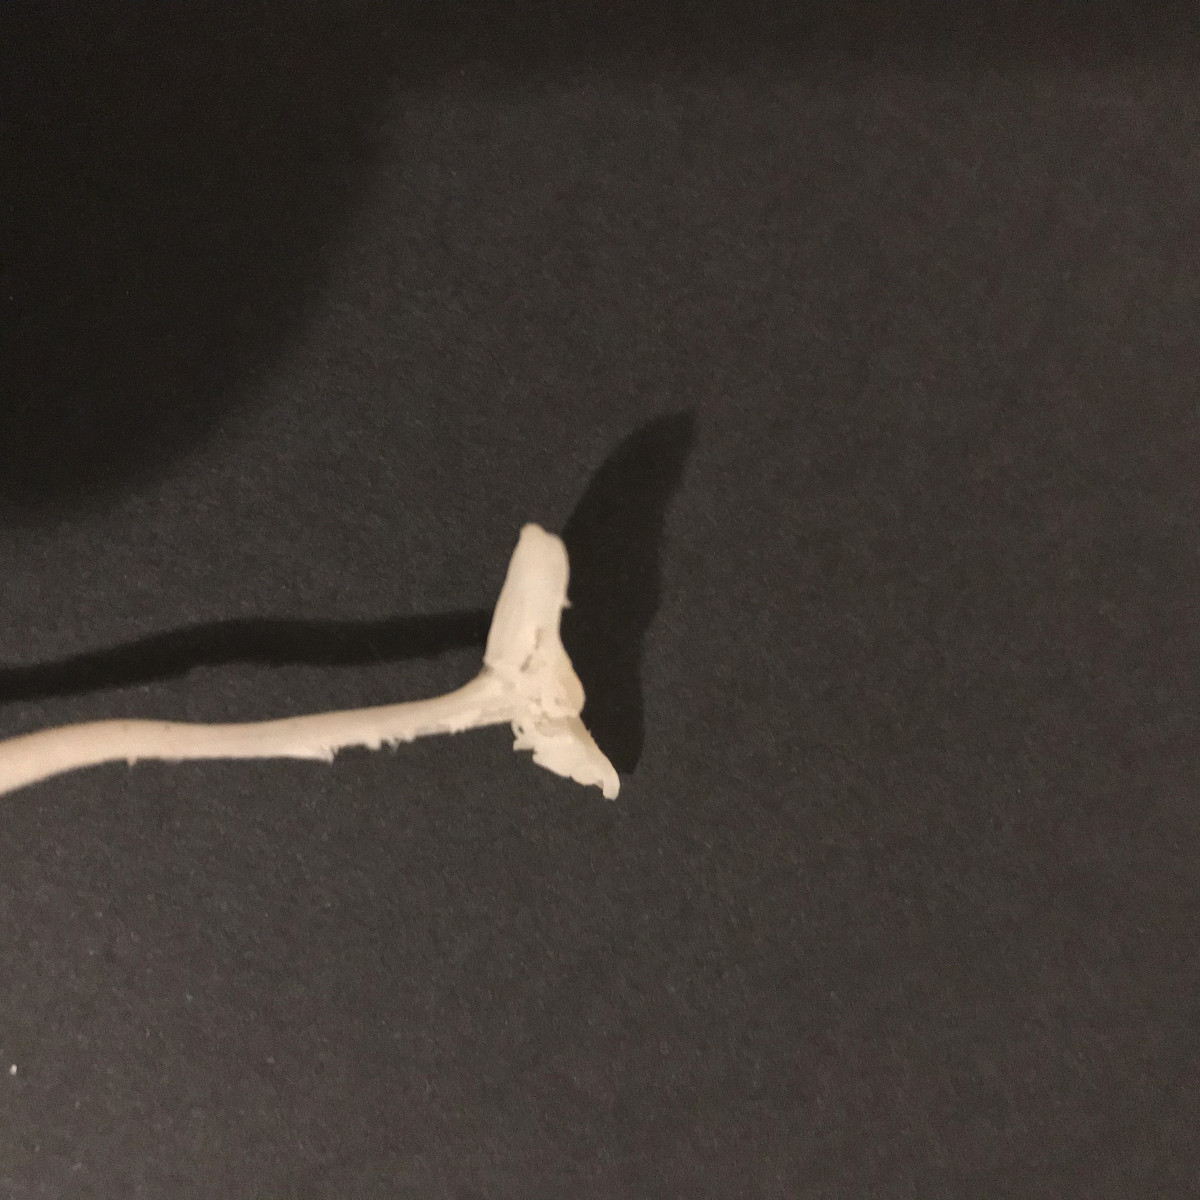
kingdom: Fungi
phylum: Basidiomycota
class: Agaricomycetes
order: Agaricales
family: Hygrophoraceae
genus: Cuphophyllus
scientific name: Cuphophyllus virgineus
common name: snehvid vokshat
